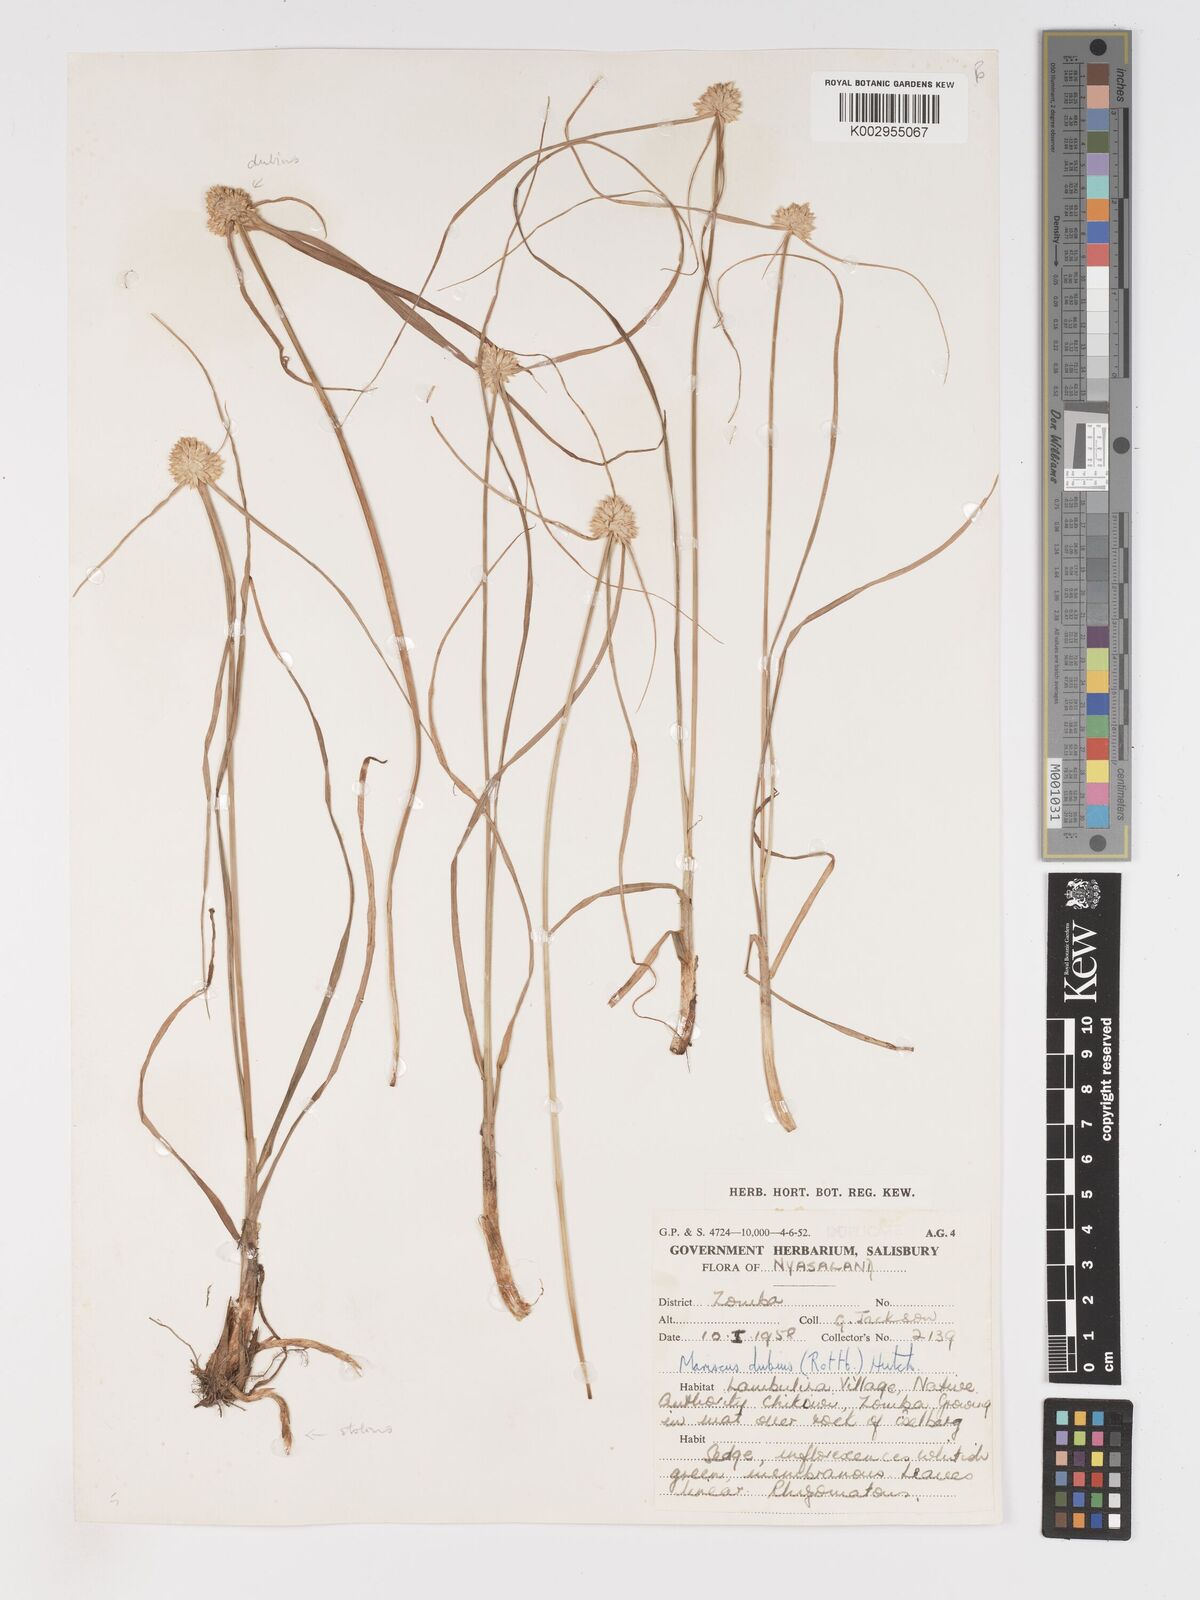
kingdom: Plantae
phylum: Tracheophyta
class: Liliopsida
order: Poales
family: Cyperaceae
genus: Cyperus
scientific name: Cyperus diurensis
